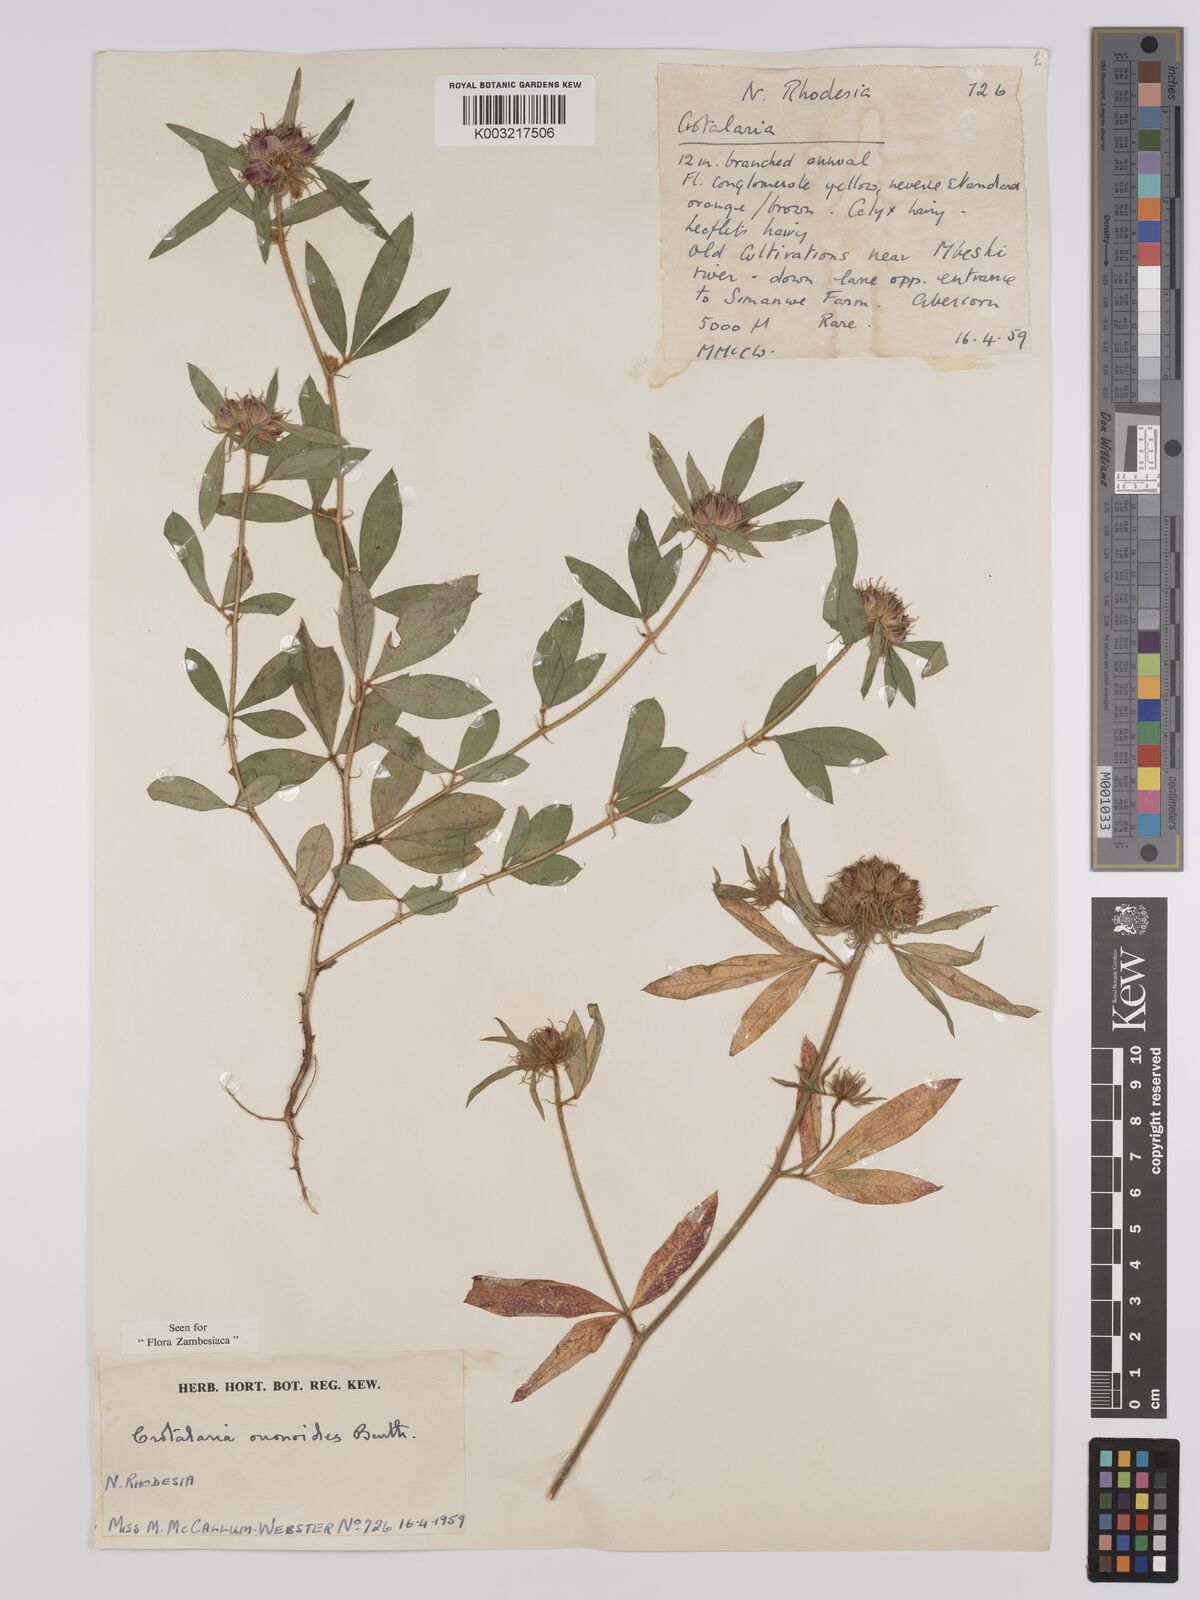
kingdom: Plantae
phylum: Tracheophyta
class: Magnoliopsida
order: Fabales
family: Fabaceae
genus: Crotalaria
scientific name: Crotalaria ononoides
